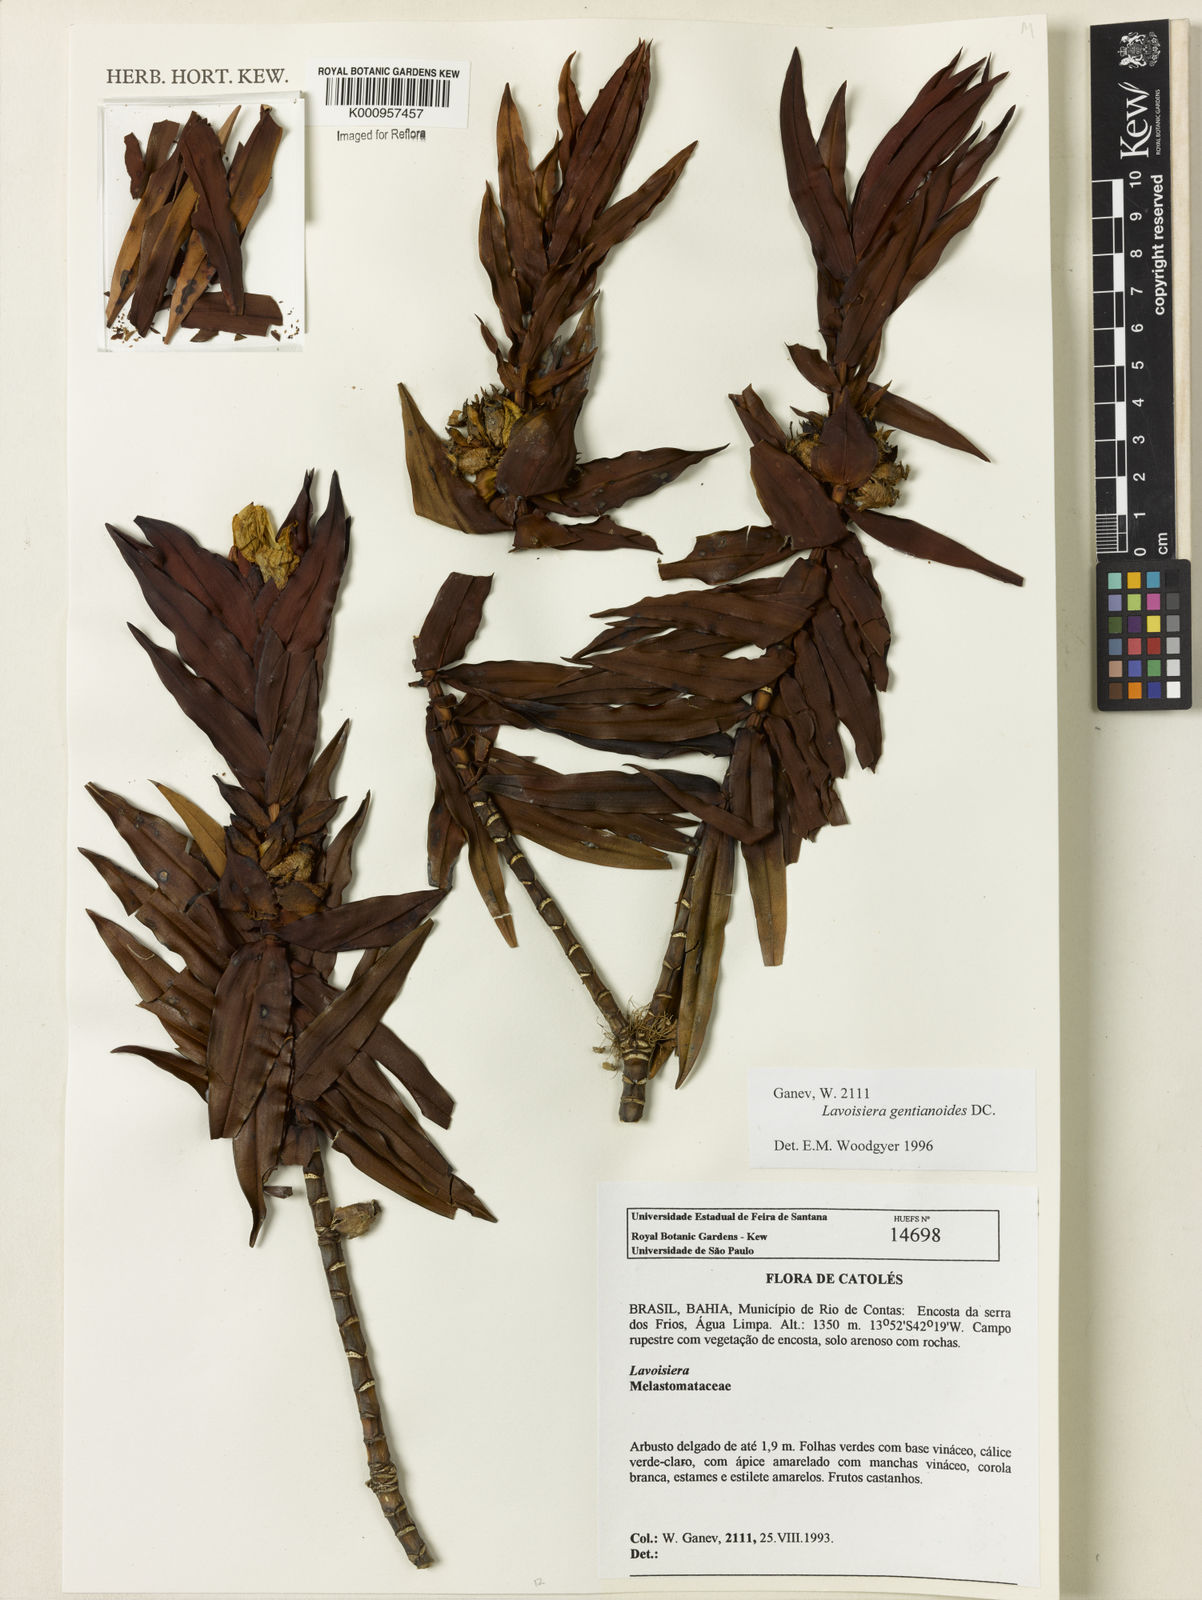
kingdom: Plantae
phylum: Tracheophyta
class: Magnoliopsida
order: Myrtales
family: Melastomataceae
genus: Microlicia
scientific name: Microlicia gentianoides
